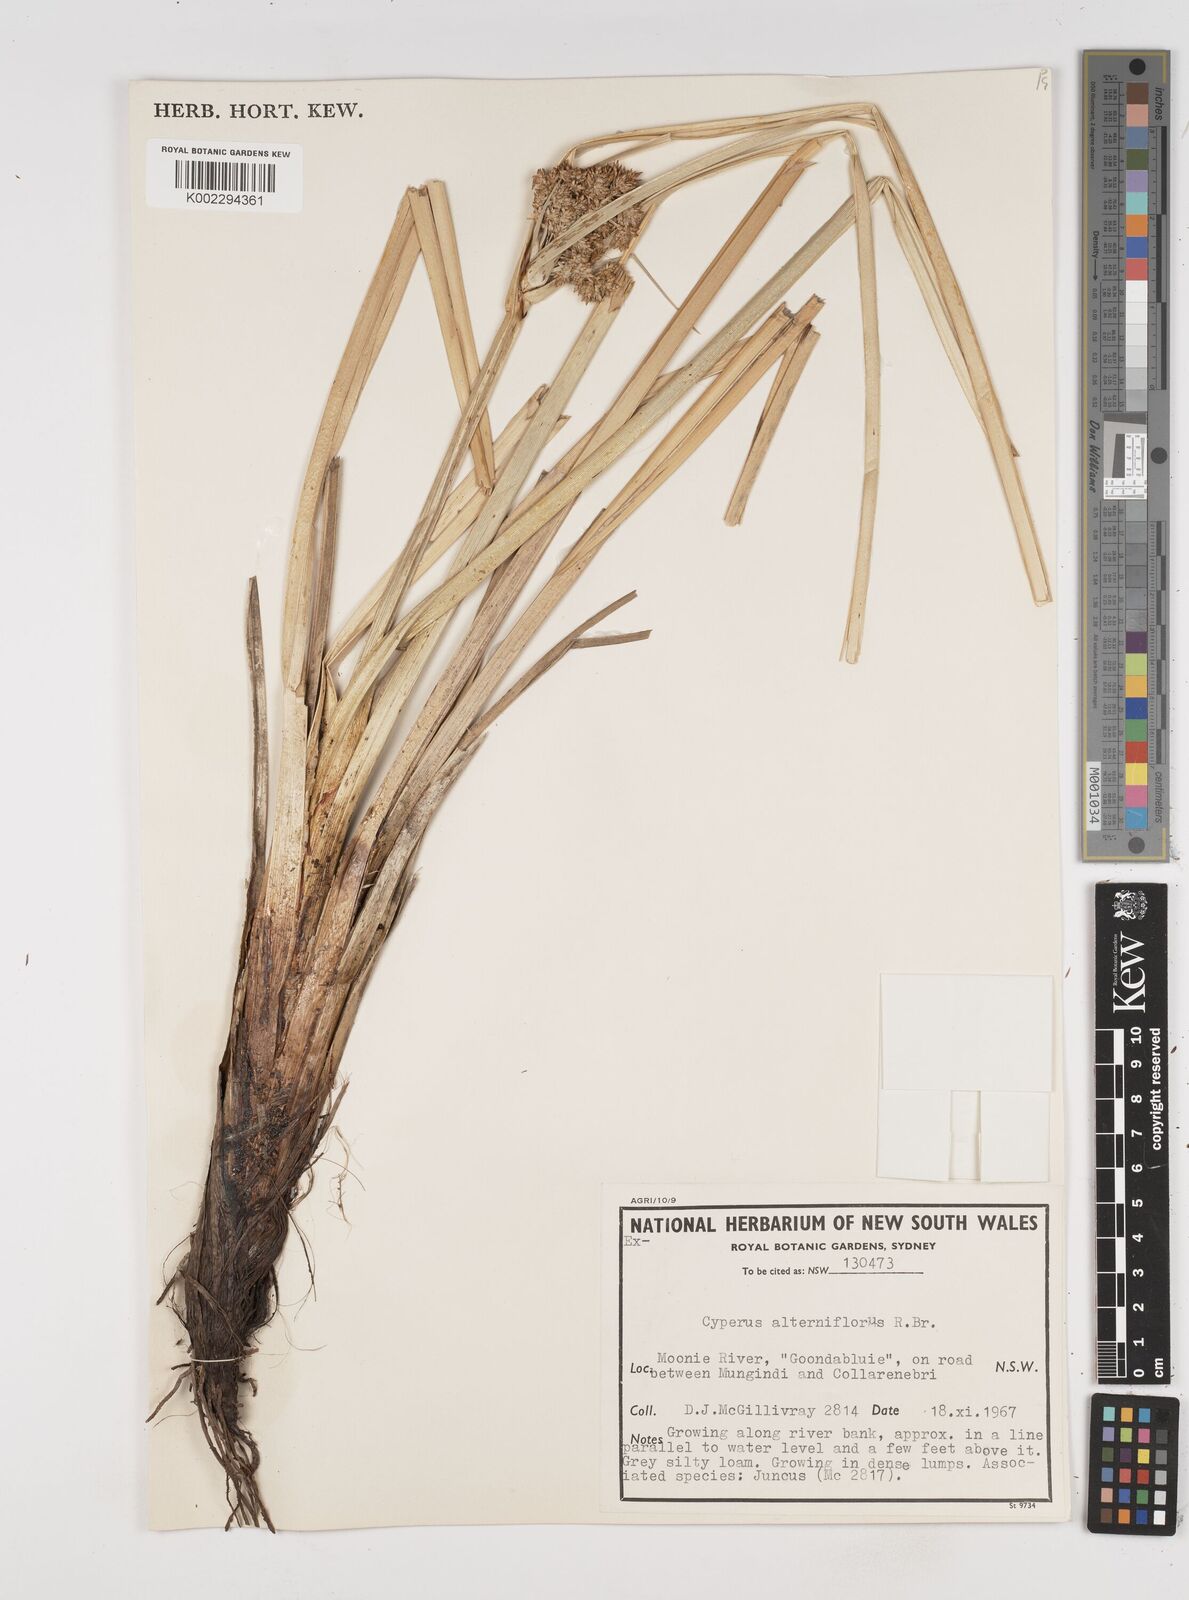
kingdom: Plantae
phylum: Tracheophyta
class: Liliopsida
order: Poales
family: Cyperaceae
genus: Cyperus
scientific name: Cyperus alterniflorus
